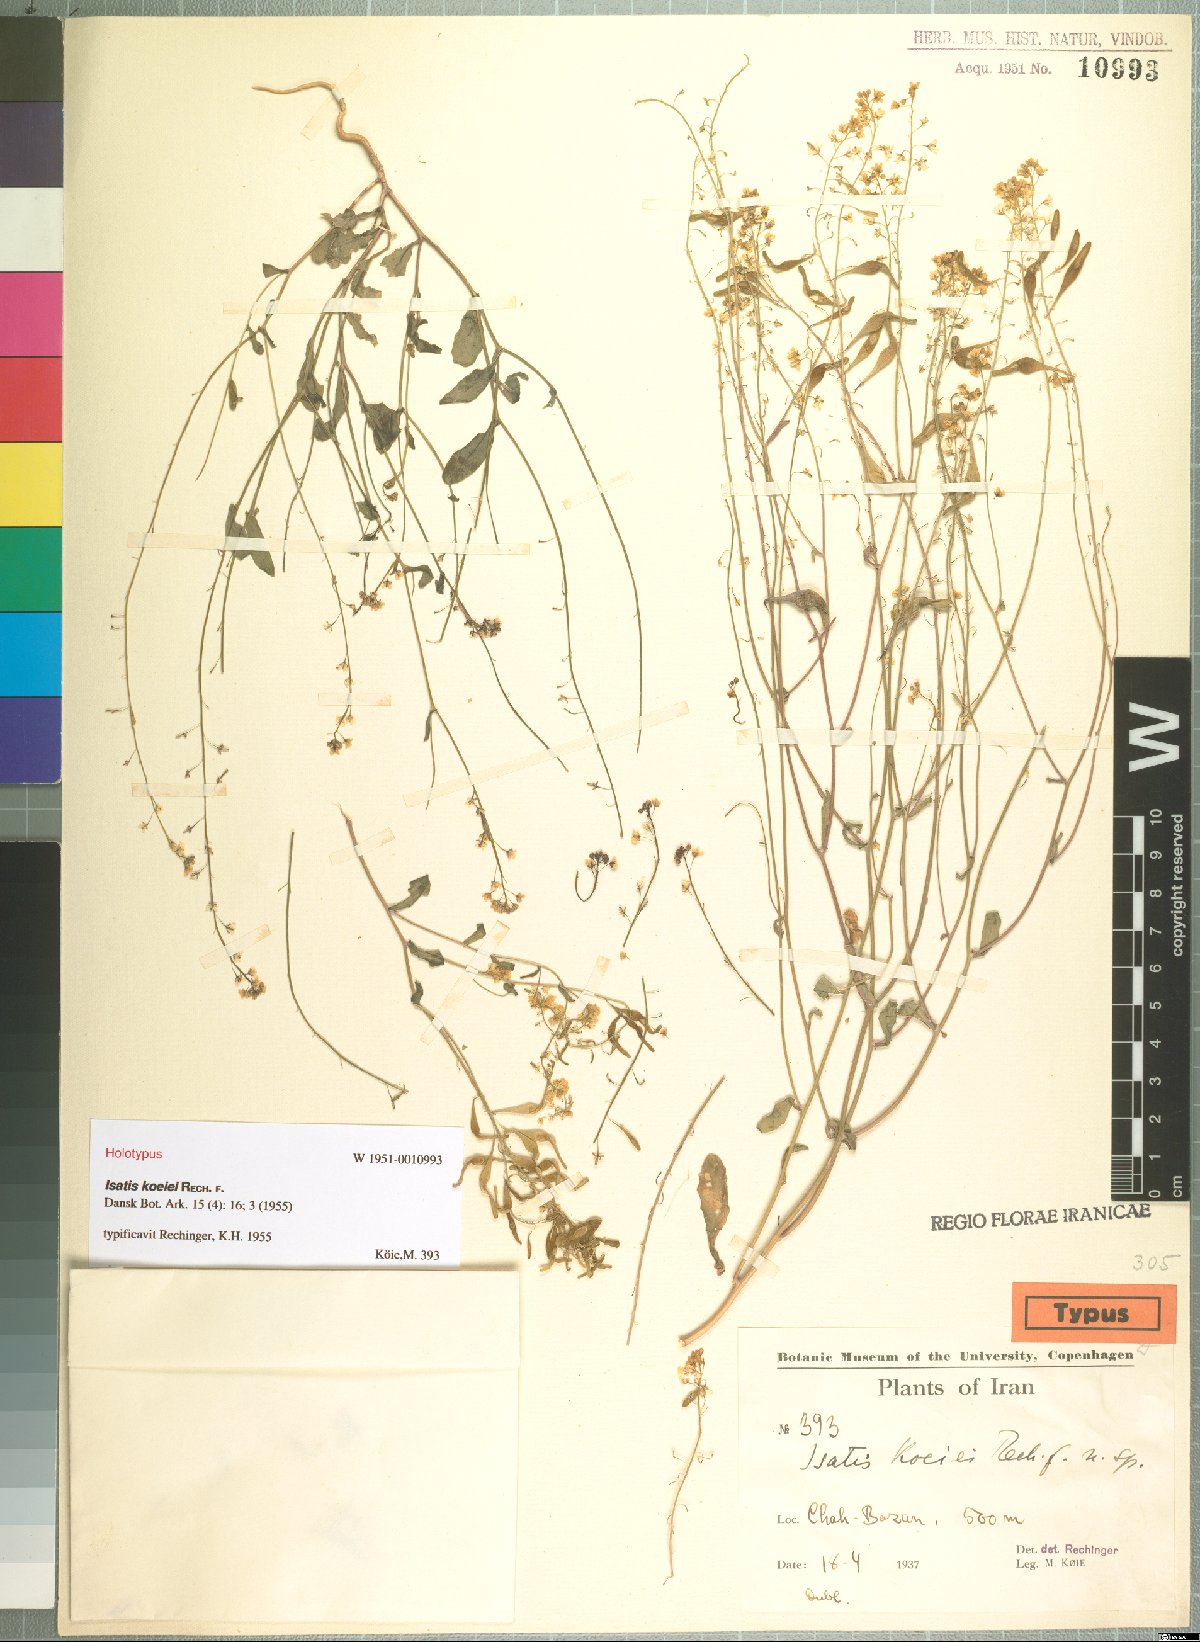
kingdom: Plantae
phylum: Tracheophyta
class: Magnoliopsida
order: Brassicales
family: Brassicaceae
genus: Isatis
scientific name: Isatis raphanifolia
